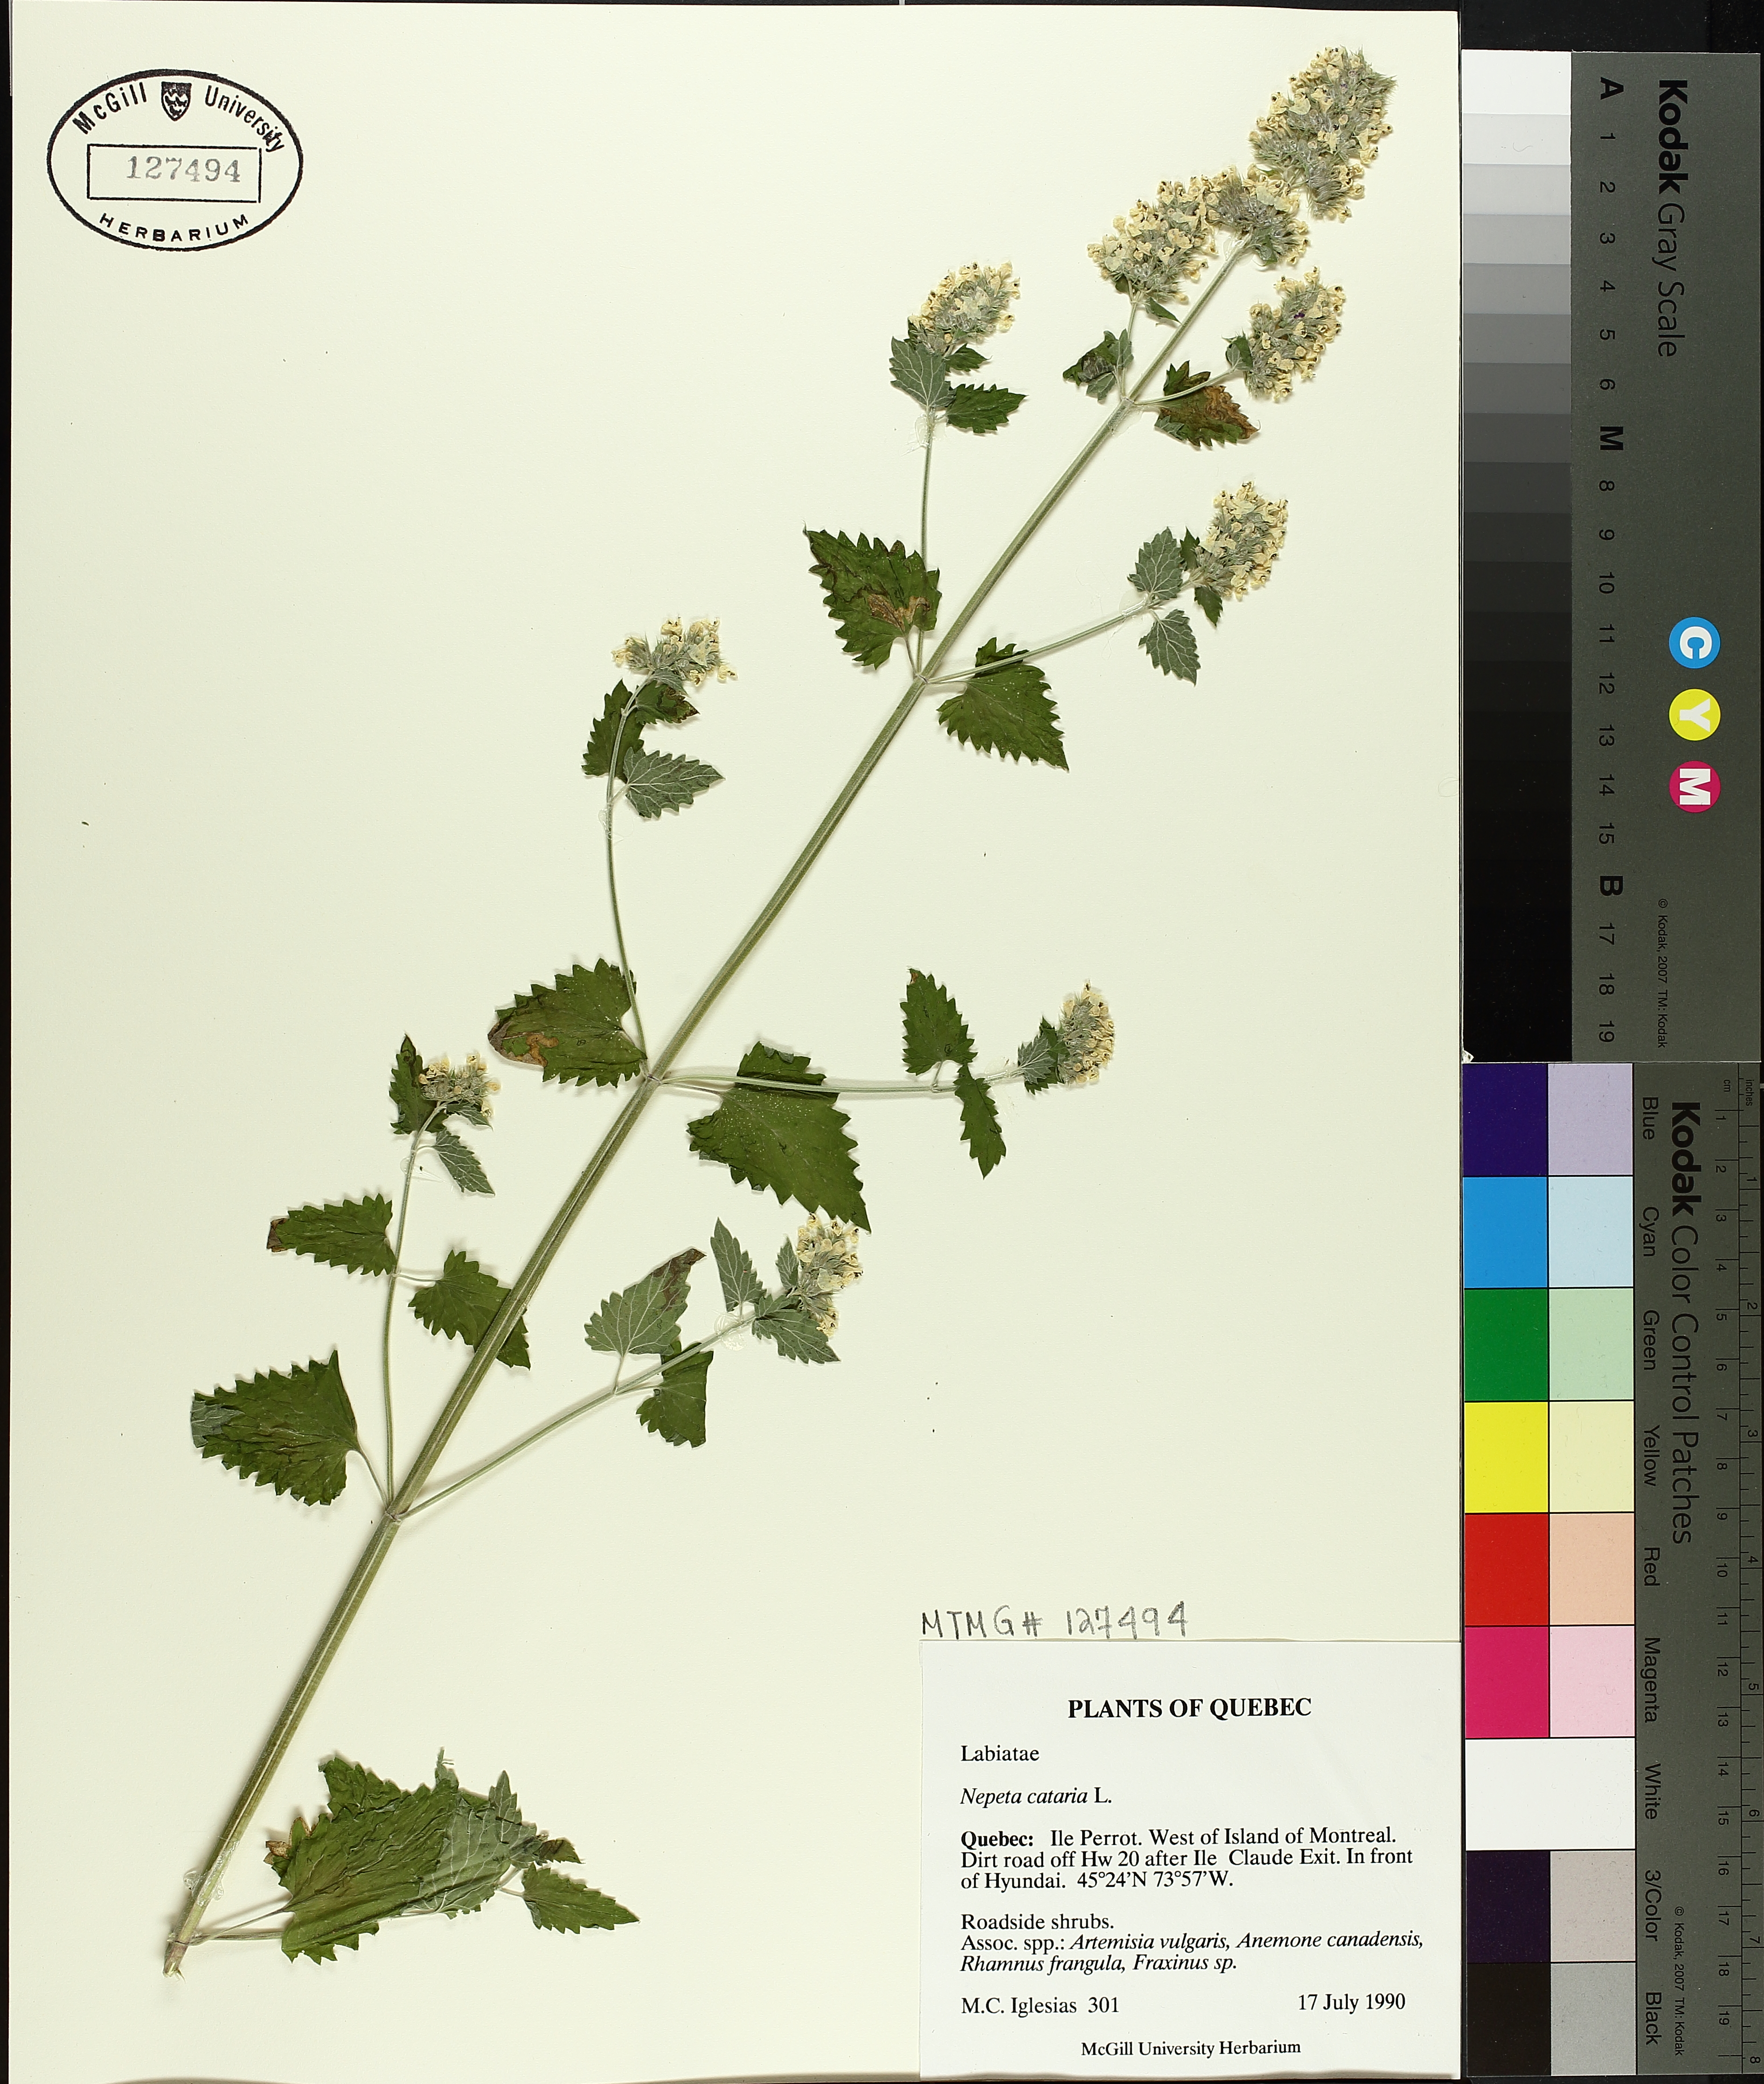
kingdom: Plantae
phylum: Tracheophyta
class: Magnoliopsida
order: Lamiales
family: Lamiaceae
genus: Nepeta
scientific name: Nepeta cataria
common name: Catnip
